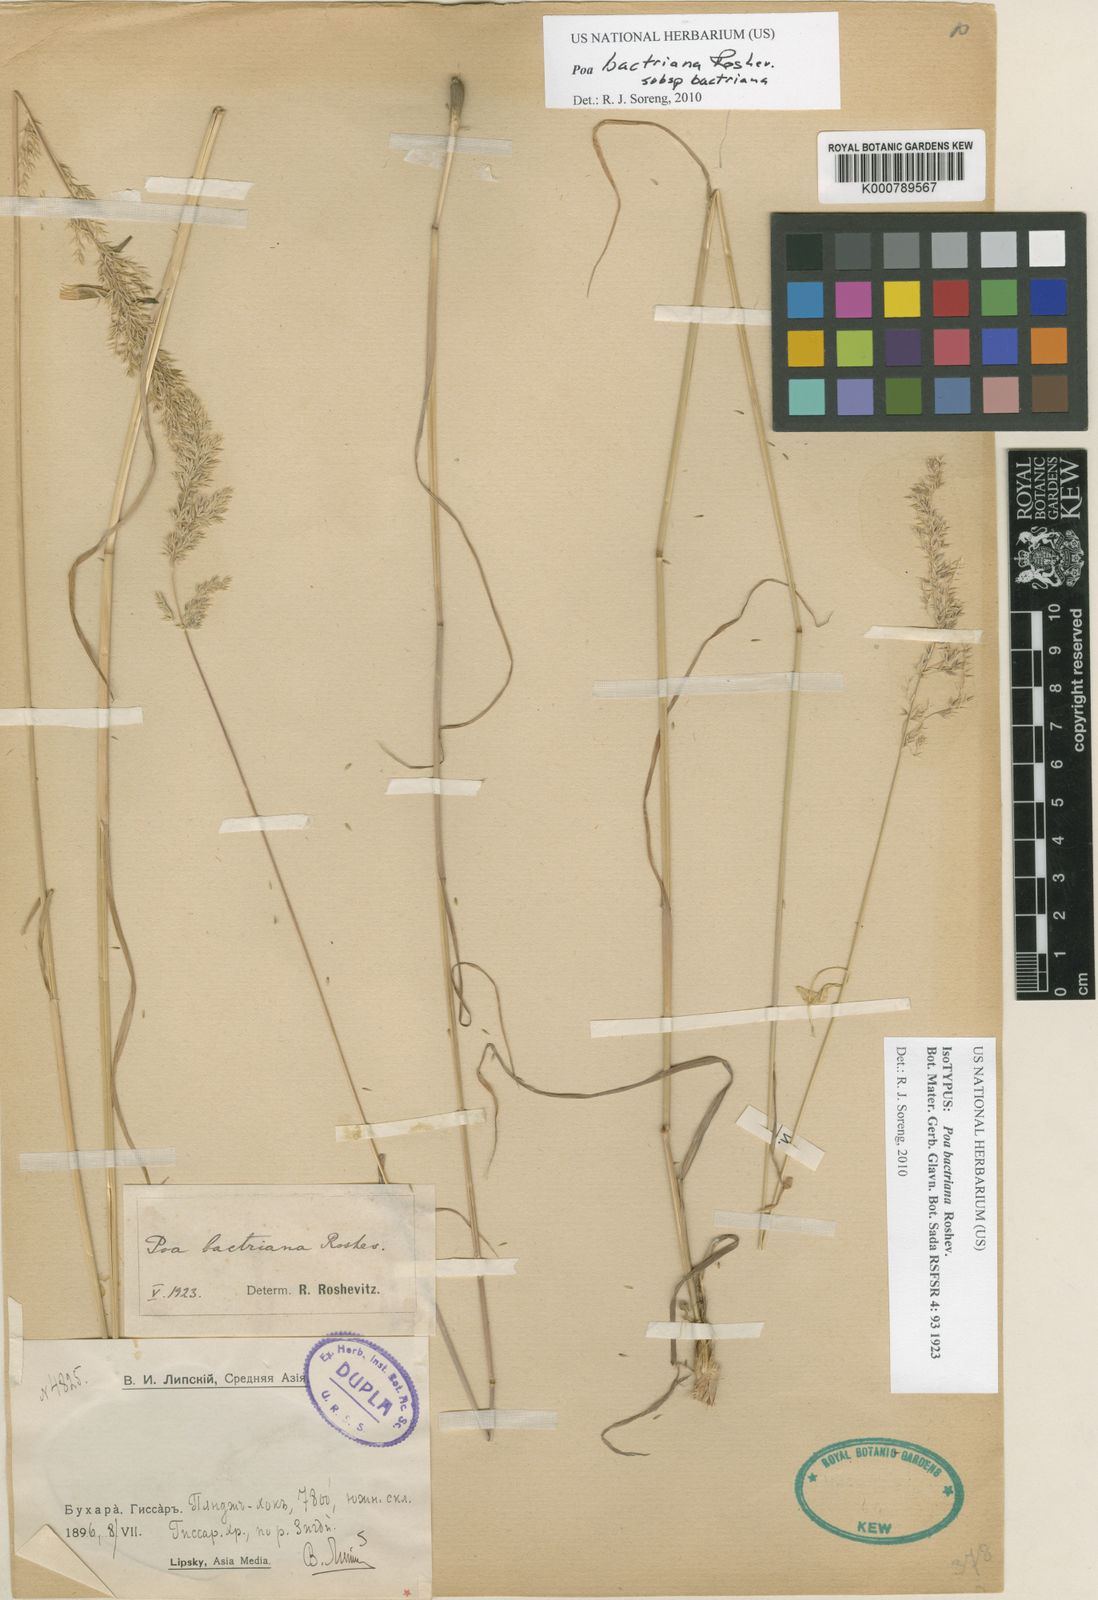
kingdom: Plantae
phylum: Tracheophyta
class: Liliopsida
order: Poales
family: Poaceae
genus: Poa
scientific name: Poa bactriana
